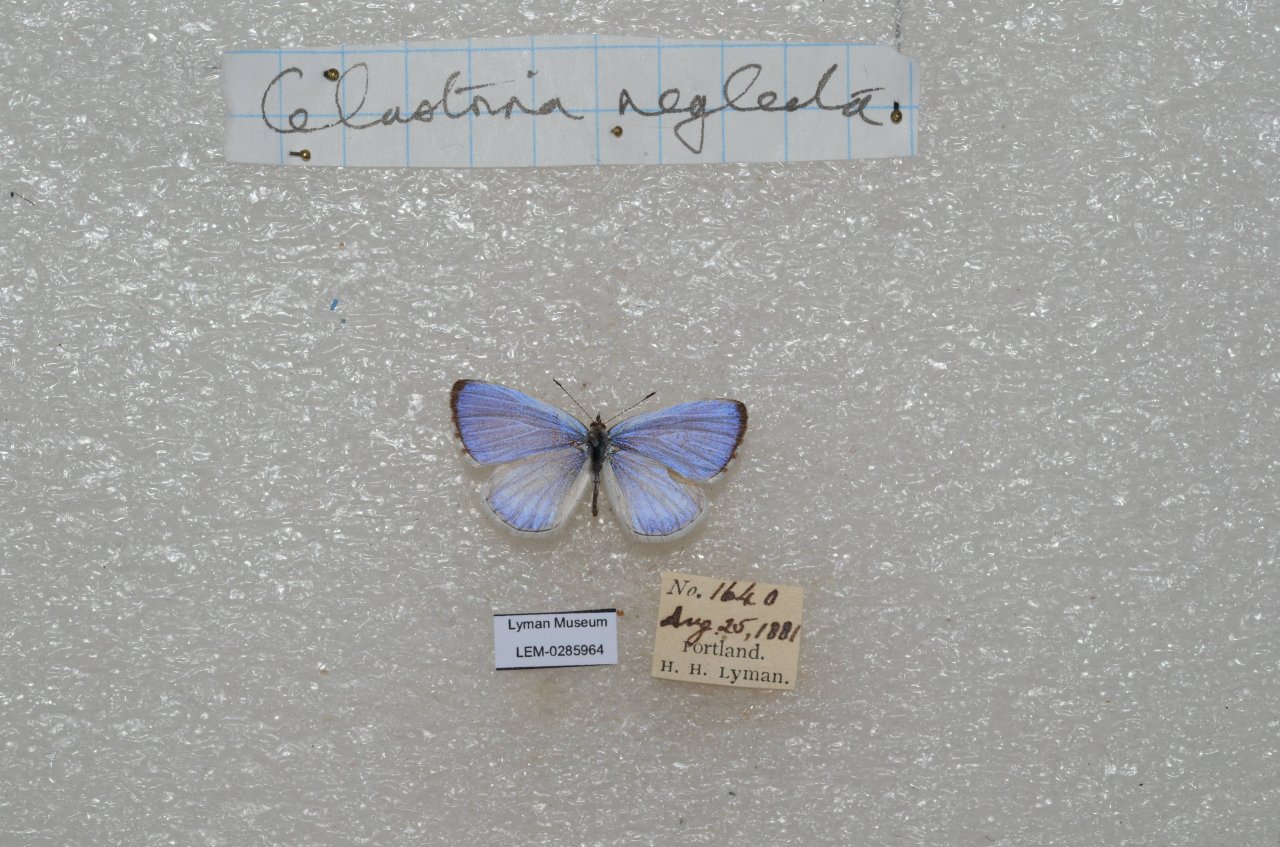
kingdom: Animalia
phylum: Arthropoda
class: Insecta
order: Lepidoptera
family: Lycaenidae
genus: Cyaniris
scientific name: Cyaniris neglecta
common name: Summer Azure
